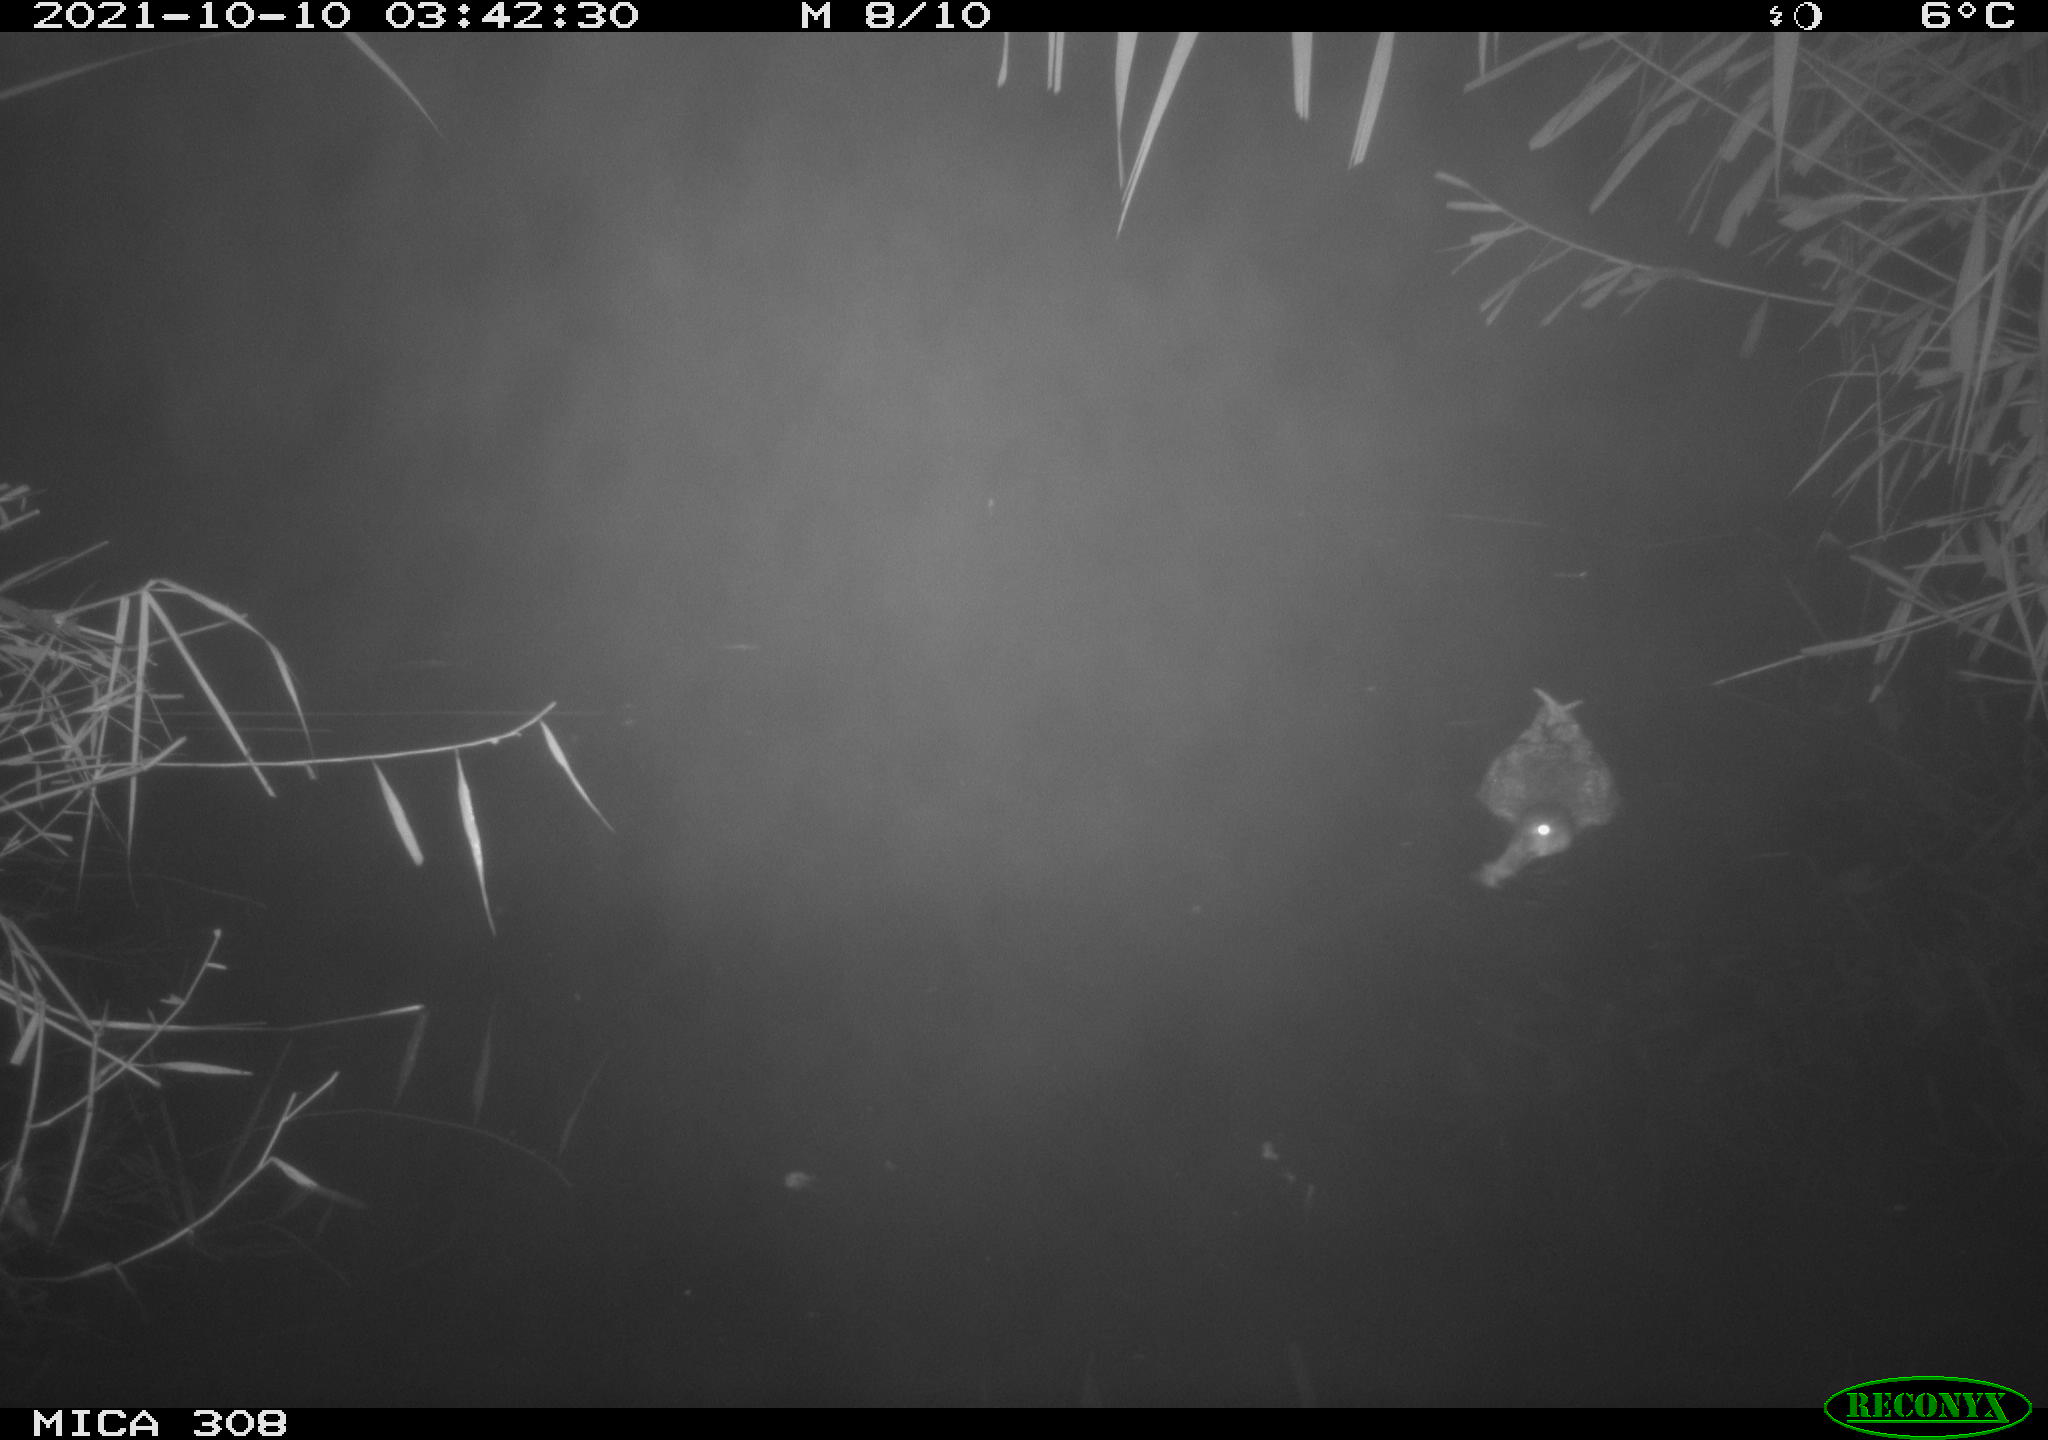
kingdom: Animalia
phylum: Chordata
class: Aves
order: Anseriformes
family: Anatidae
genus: Spatula
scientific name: Spatula clypeata
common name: Northern shoveler
